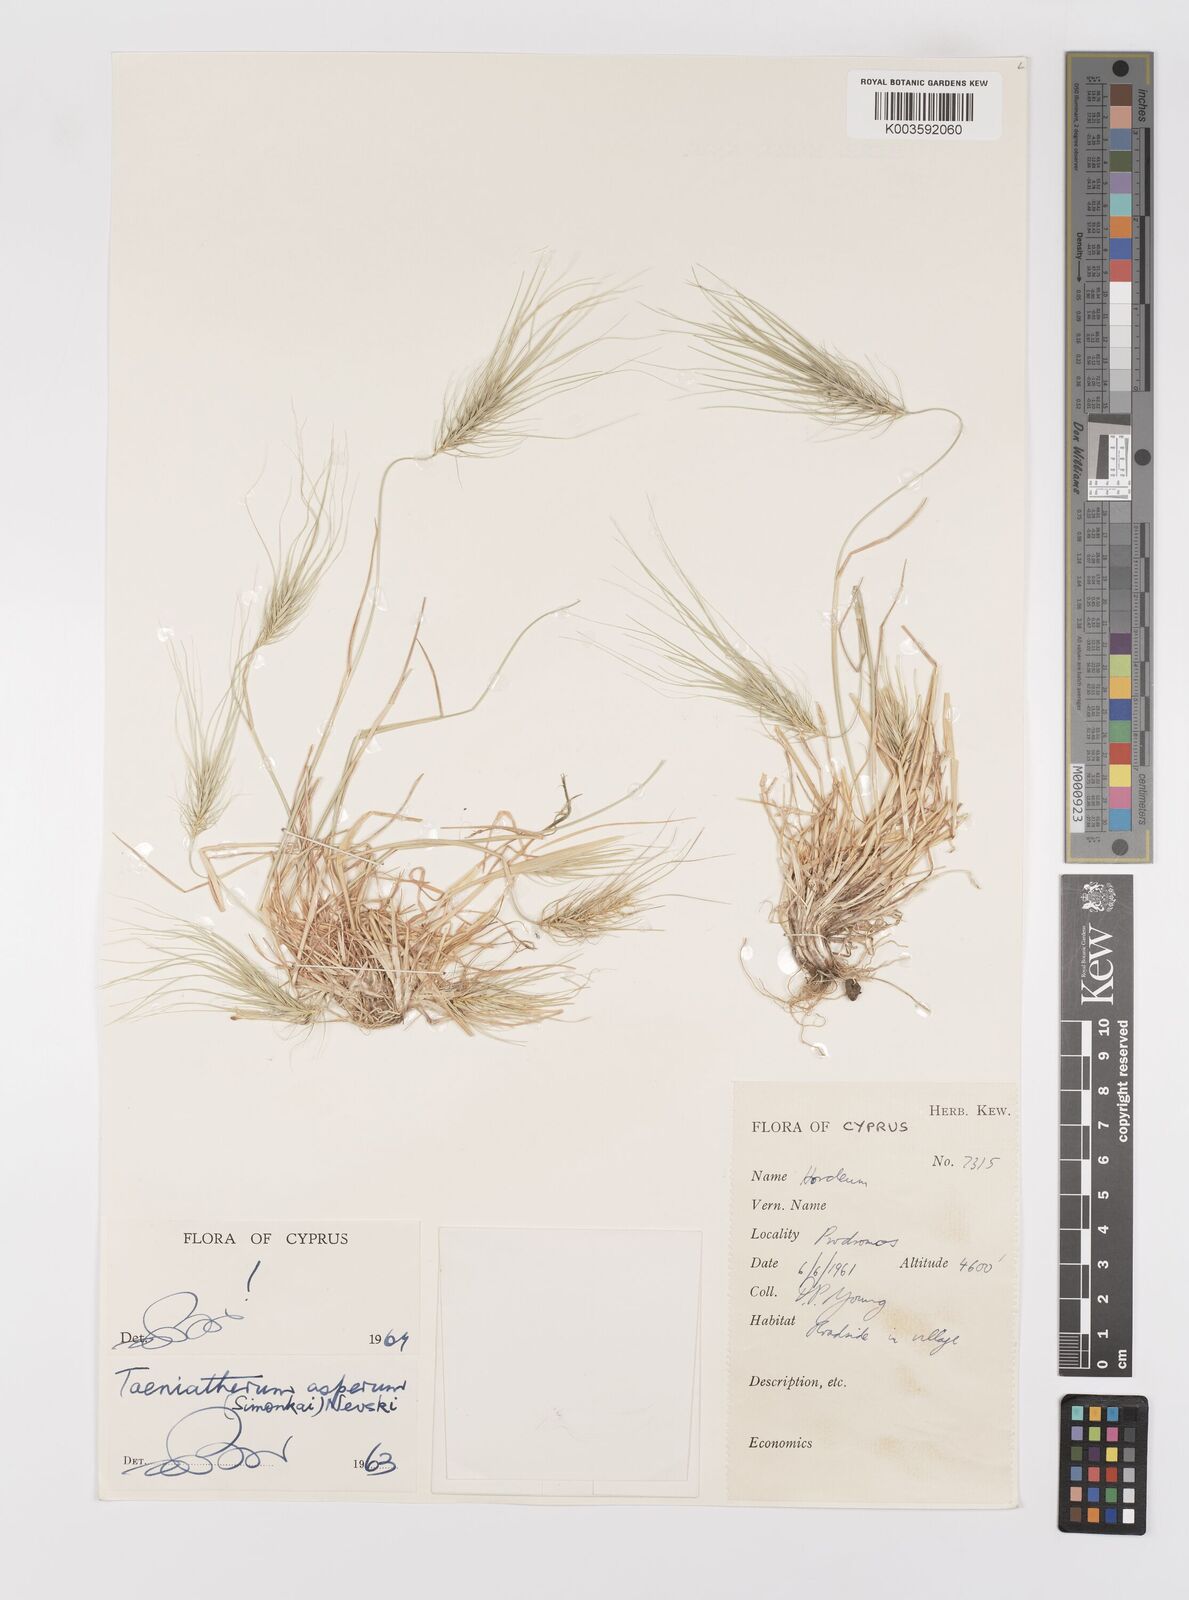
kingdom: Plantae
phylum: Tracheophyta
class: Liliopsida
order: Poales
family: Poaceae
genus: Taeniatherum
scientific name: Taeniatherum caput-medusae
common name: Medusahead
